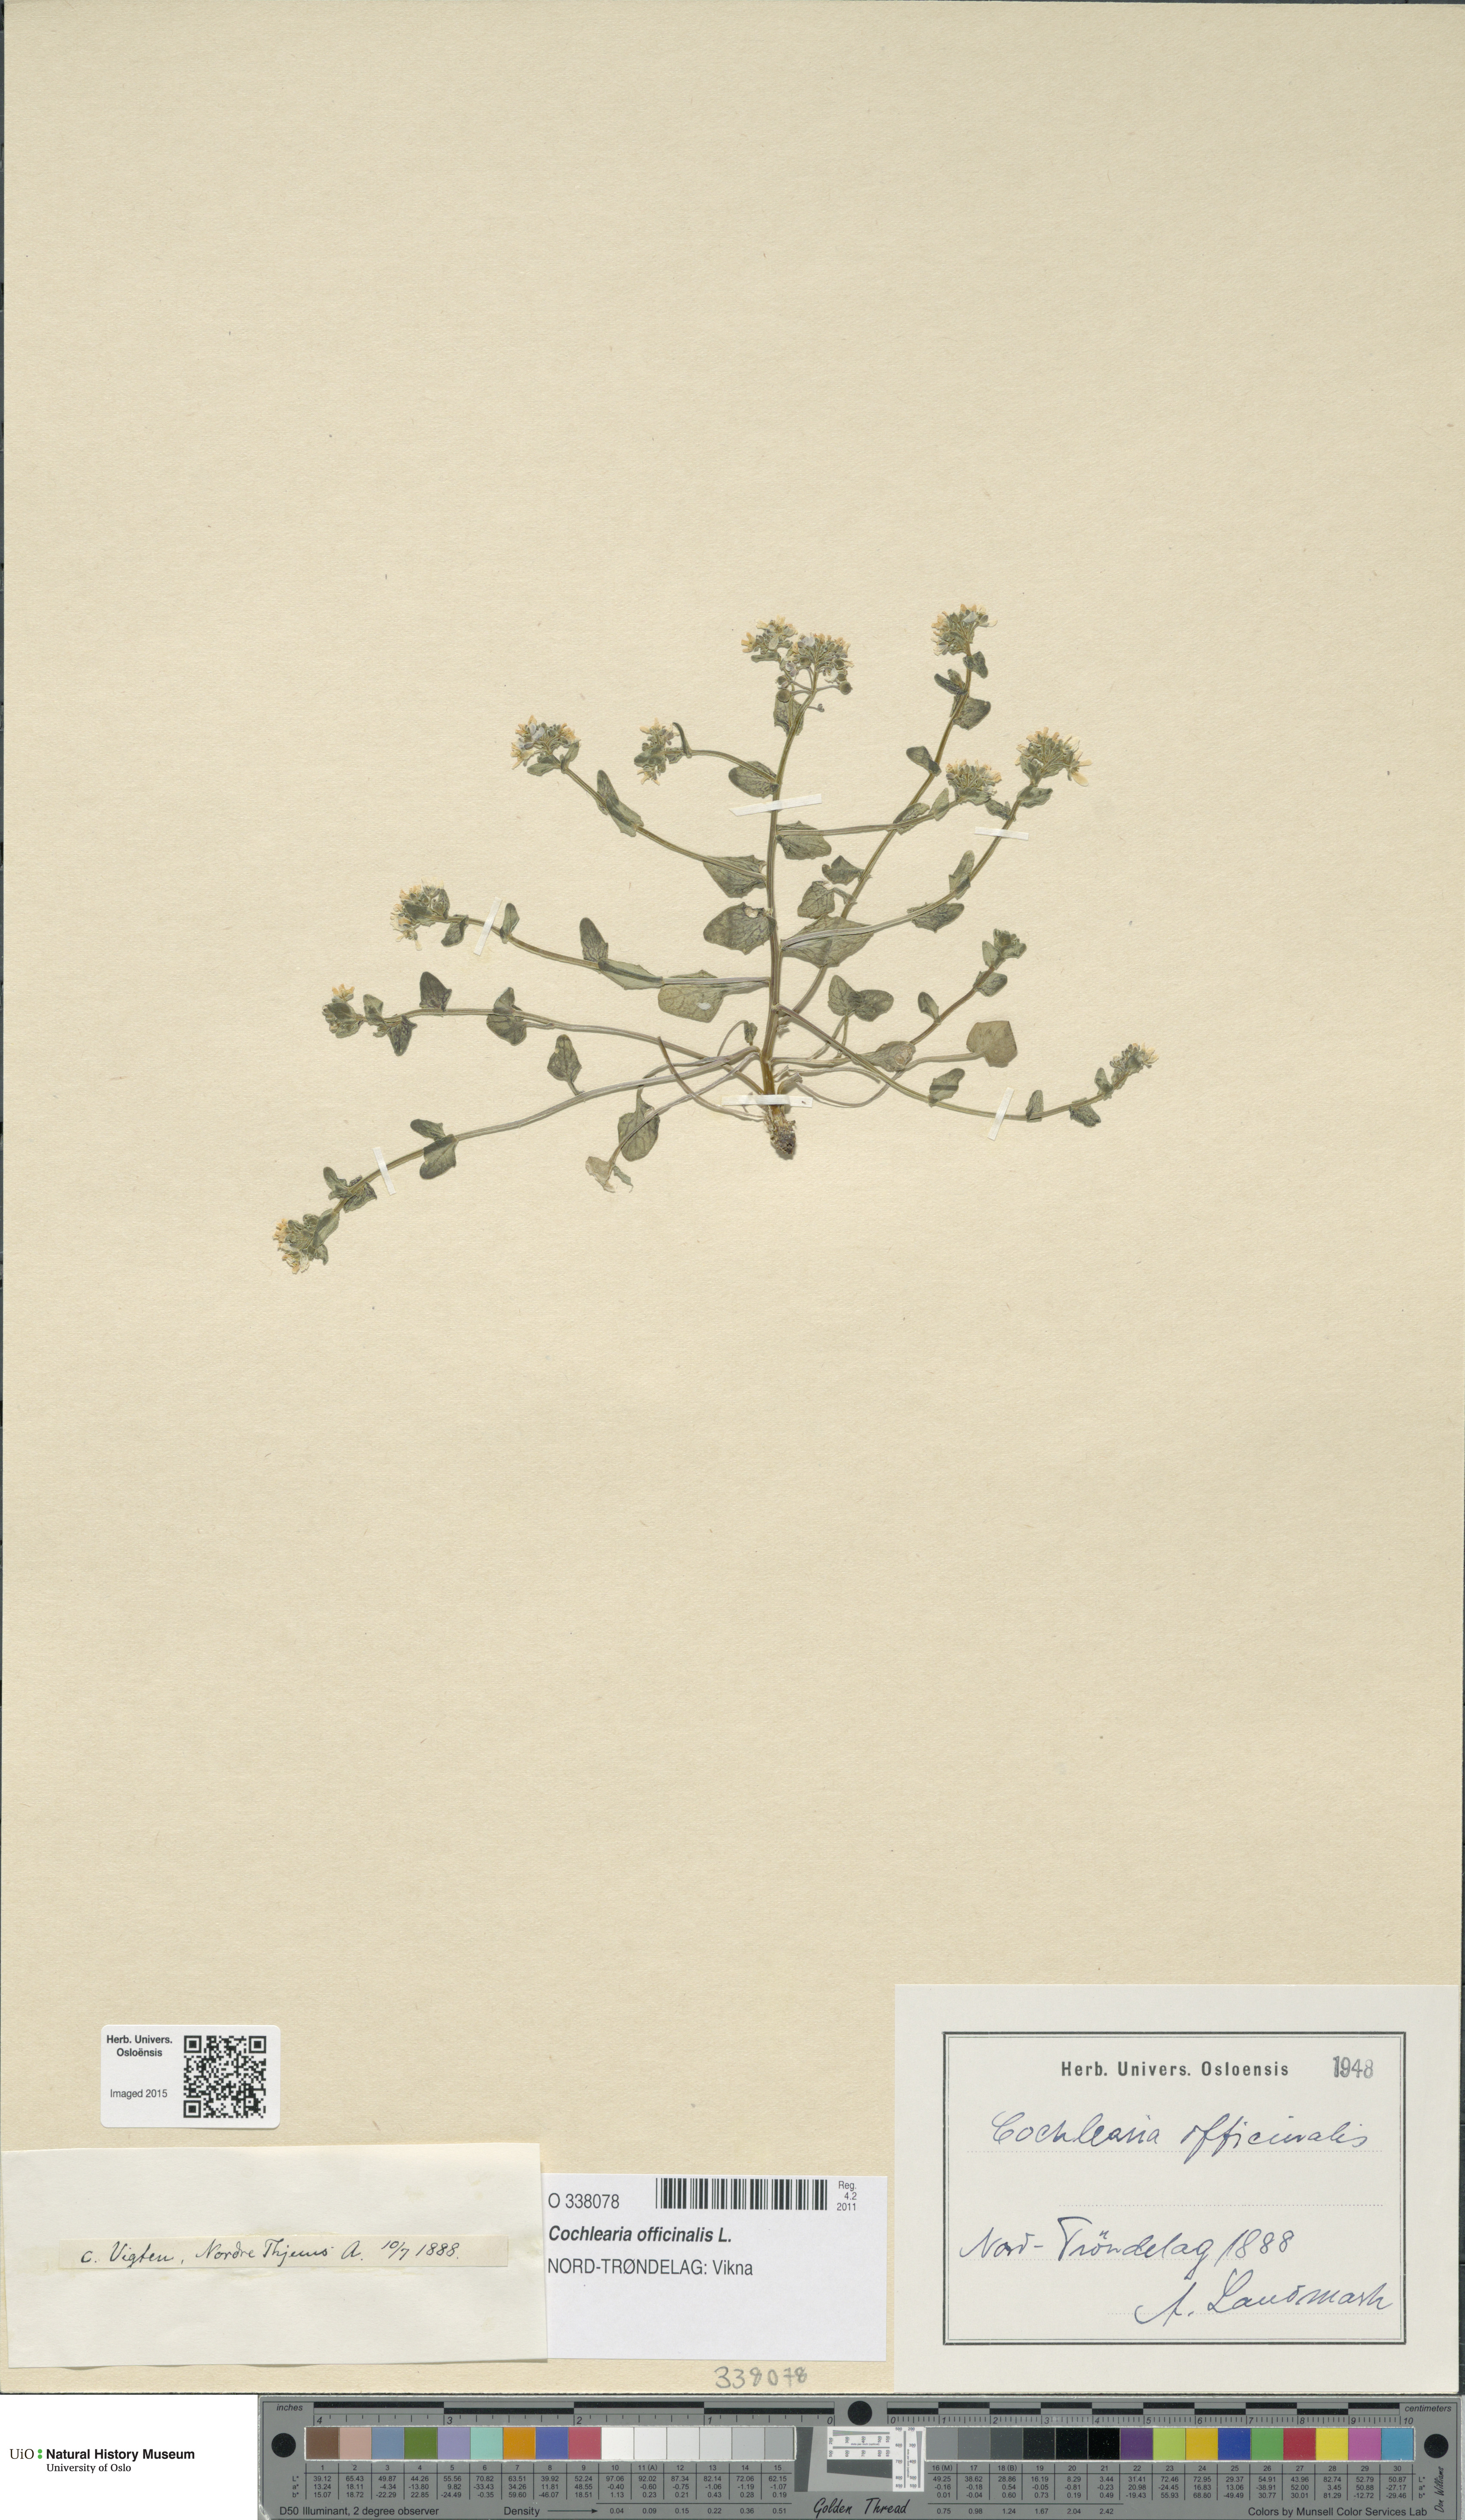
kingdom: Plantae
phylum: Tracheophyta
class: Magnoliopsida
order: Brassicales
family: Brassicaceae
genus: Cochlearia
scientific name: Cochlearia officinalis
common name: Scurvy-grass
